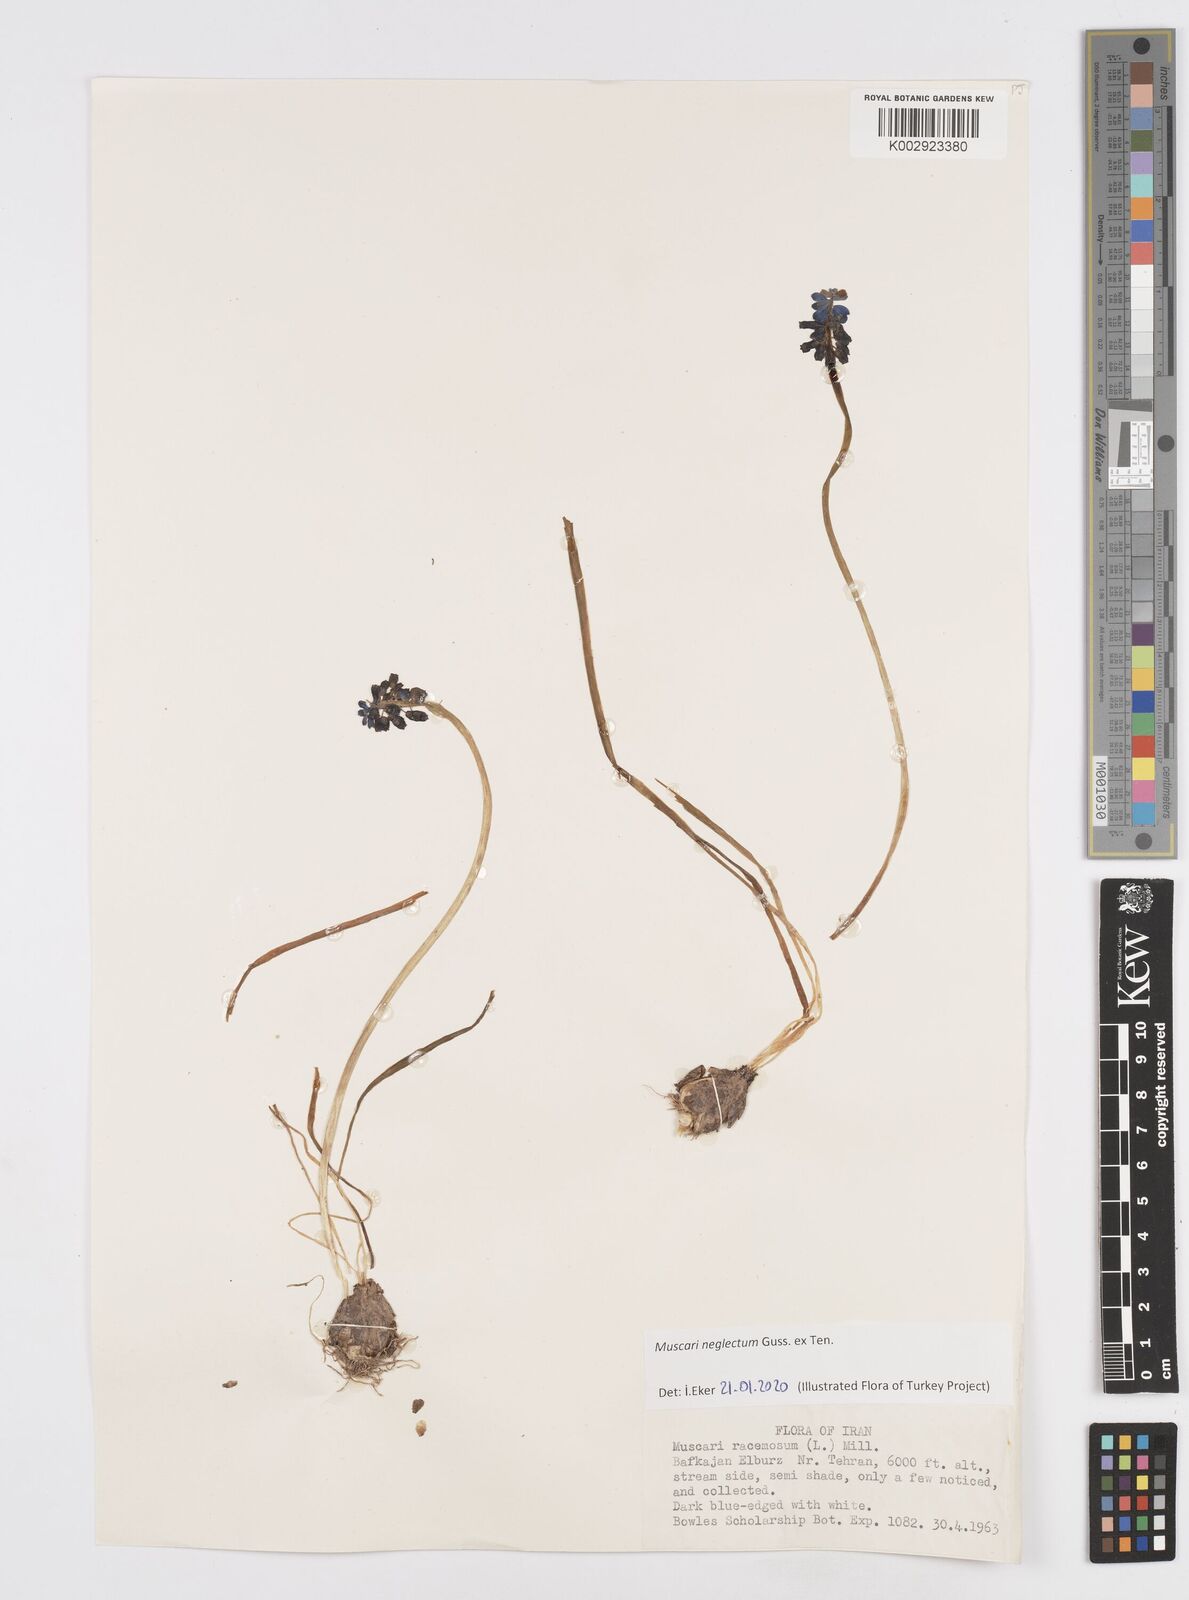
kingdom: Plantae
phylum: Tracheophyta
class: Liliopsida
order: Asparagales
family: Asparagaceae
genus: Muscari
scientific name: Muscari neglectum
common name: Grape-hyacinth
